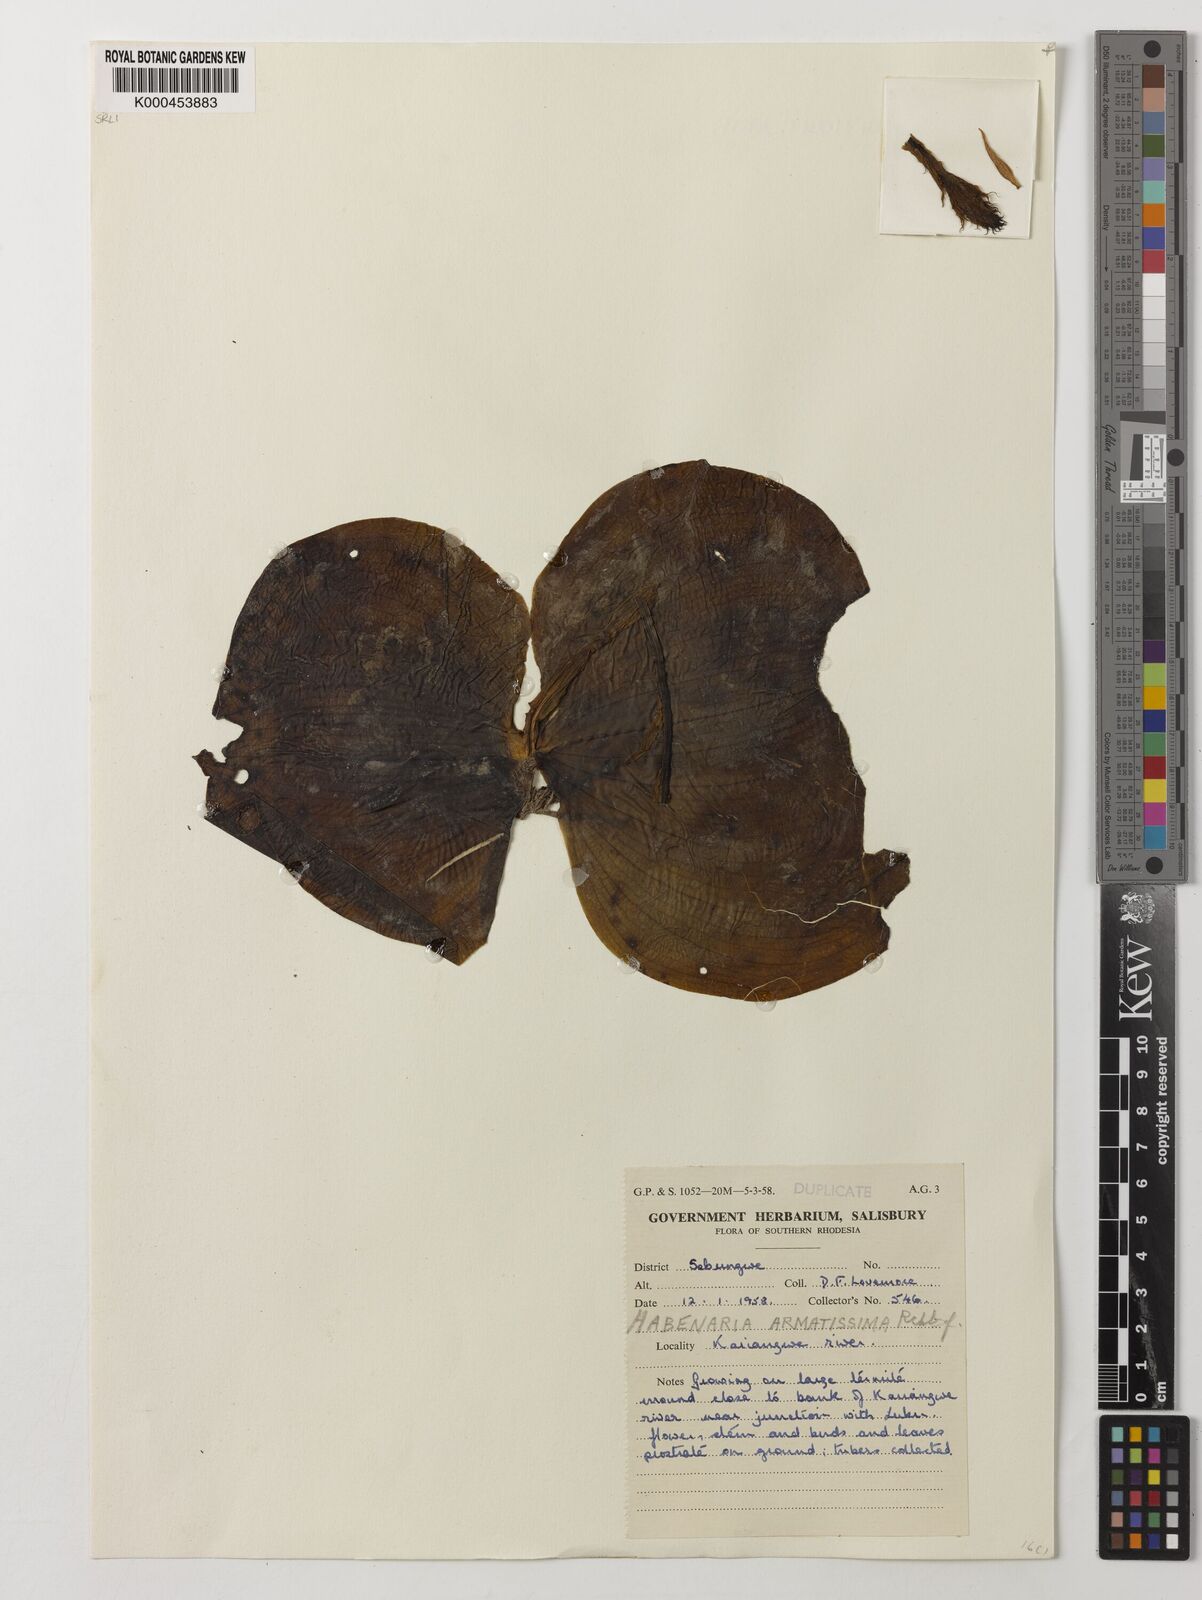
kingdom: Plantae
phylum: Tracheophyta
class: Liliopsida
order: Asparagales
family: Orchidaceae
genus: Habenaria
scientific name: Habenaria armatissima
